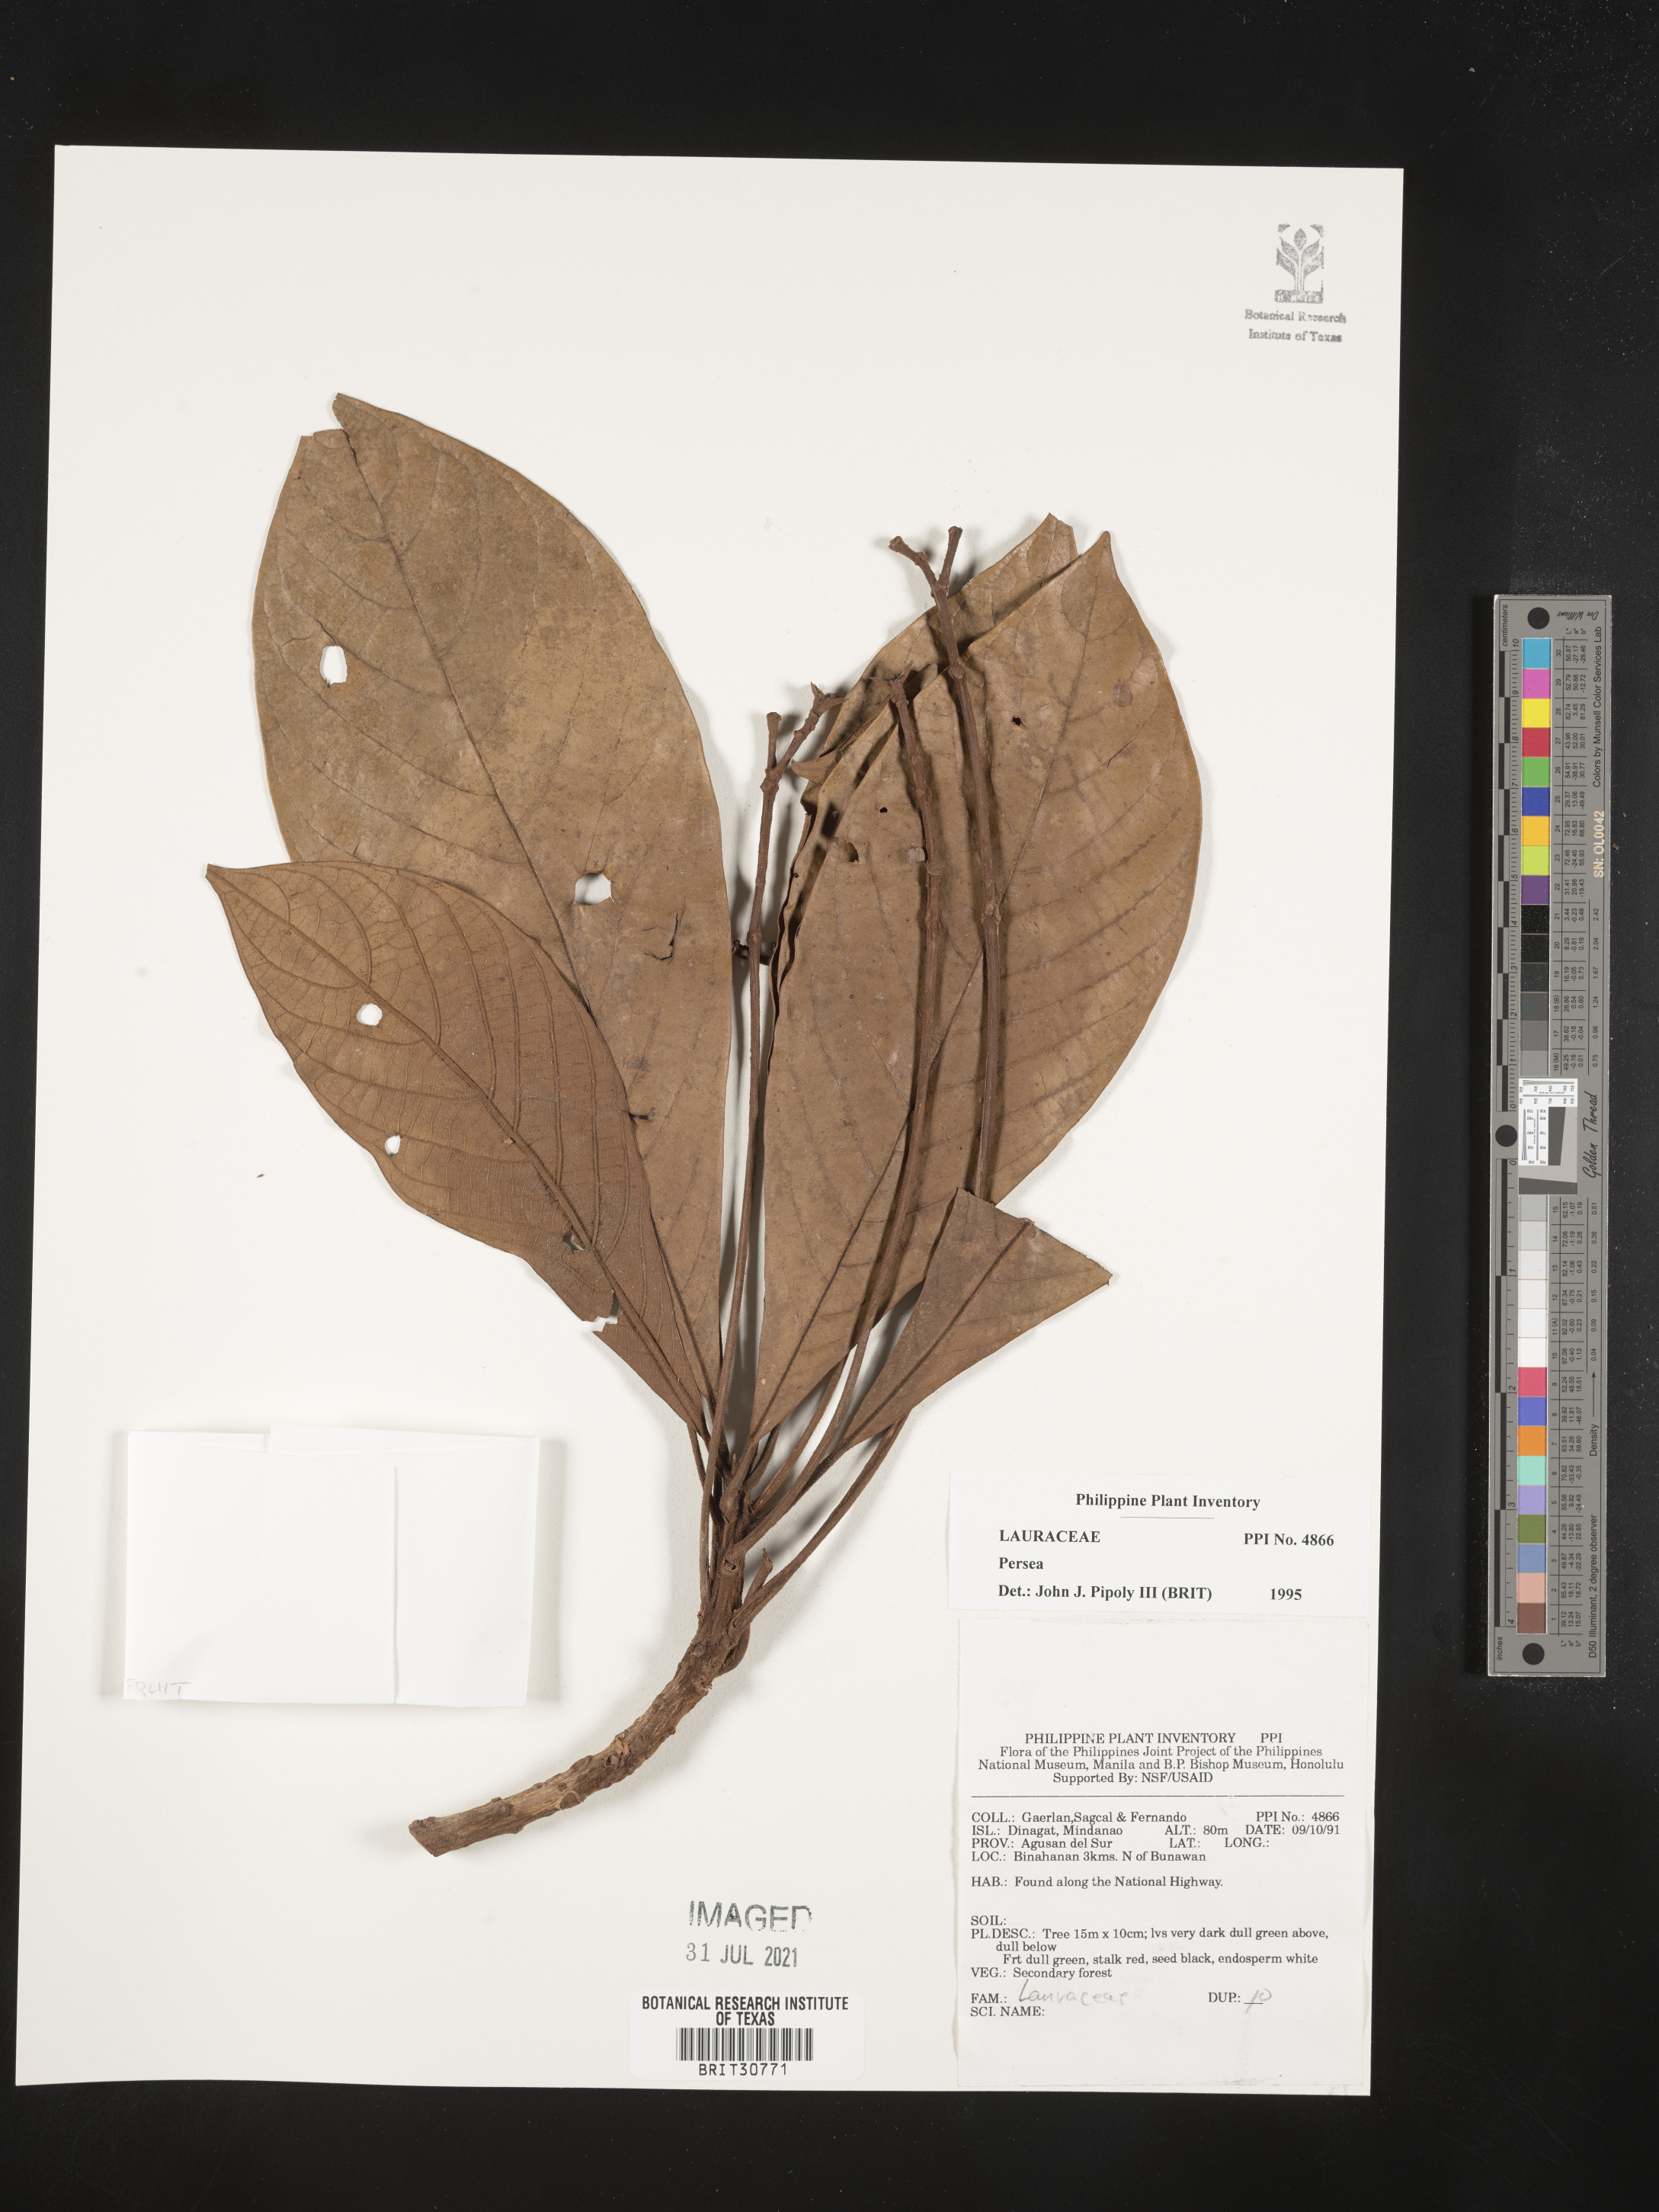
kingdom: Plantae
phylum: Tracheophyta
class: Magnoliopsida
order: Laurales
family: Lauraceae
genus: Persea
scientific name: Persea
